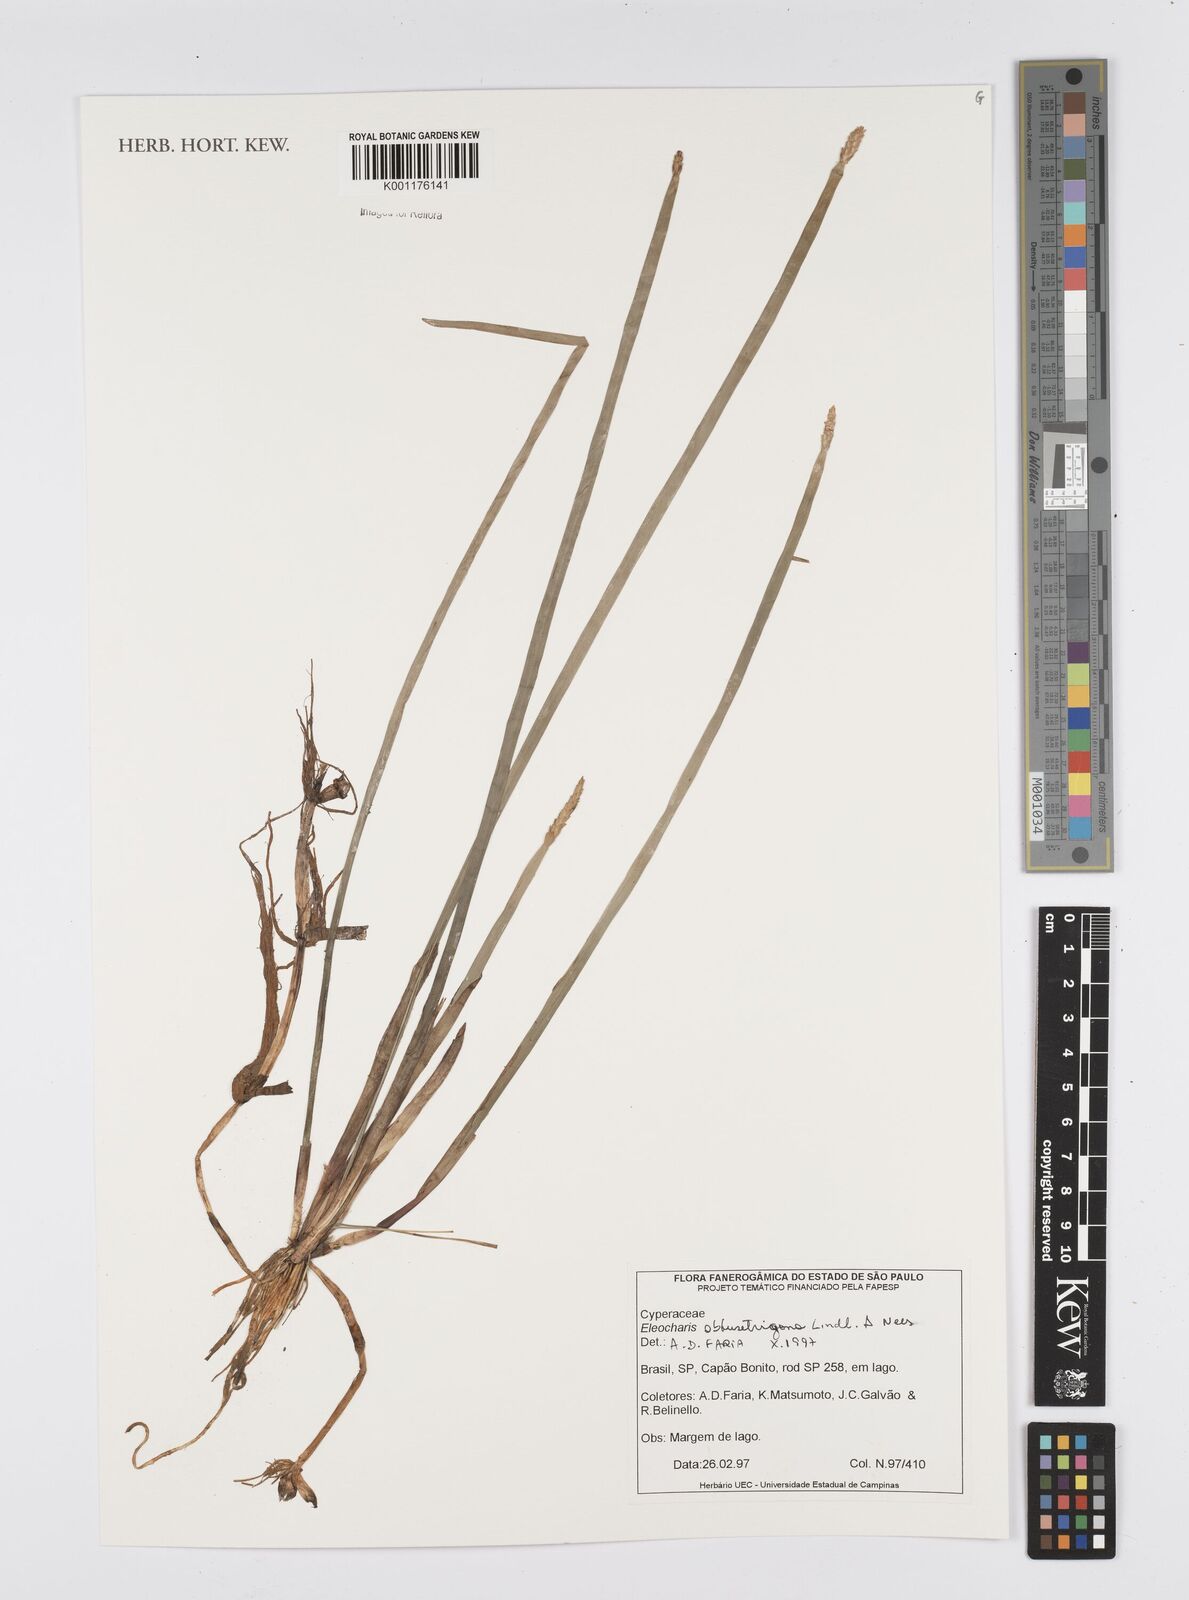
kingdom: Plantae
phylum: Tracheophyta
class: Liliopsida
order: Poales
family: Cyperaceae
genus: Eleocharis
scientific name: Eleocharis acutangula
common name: Acute spikerush
